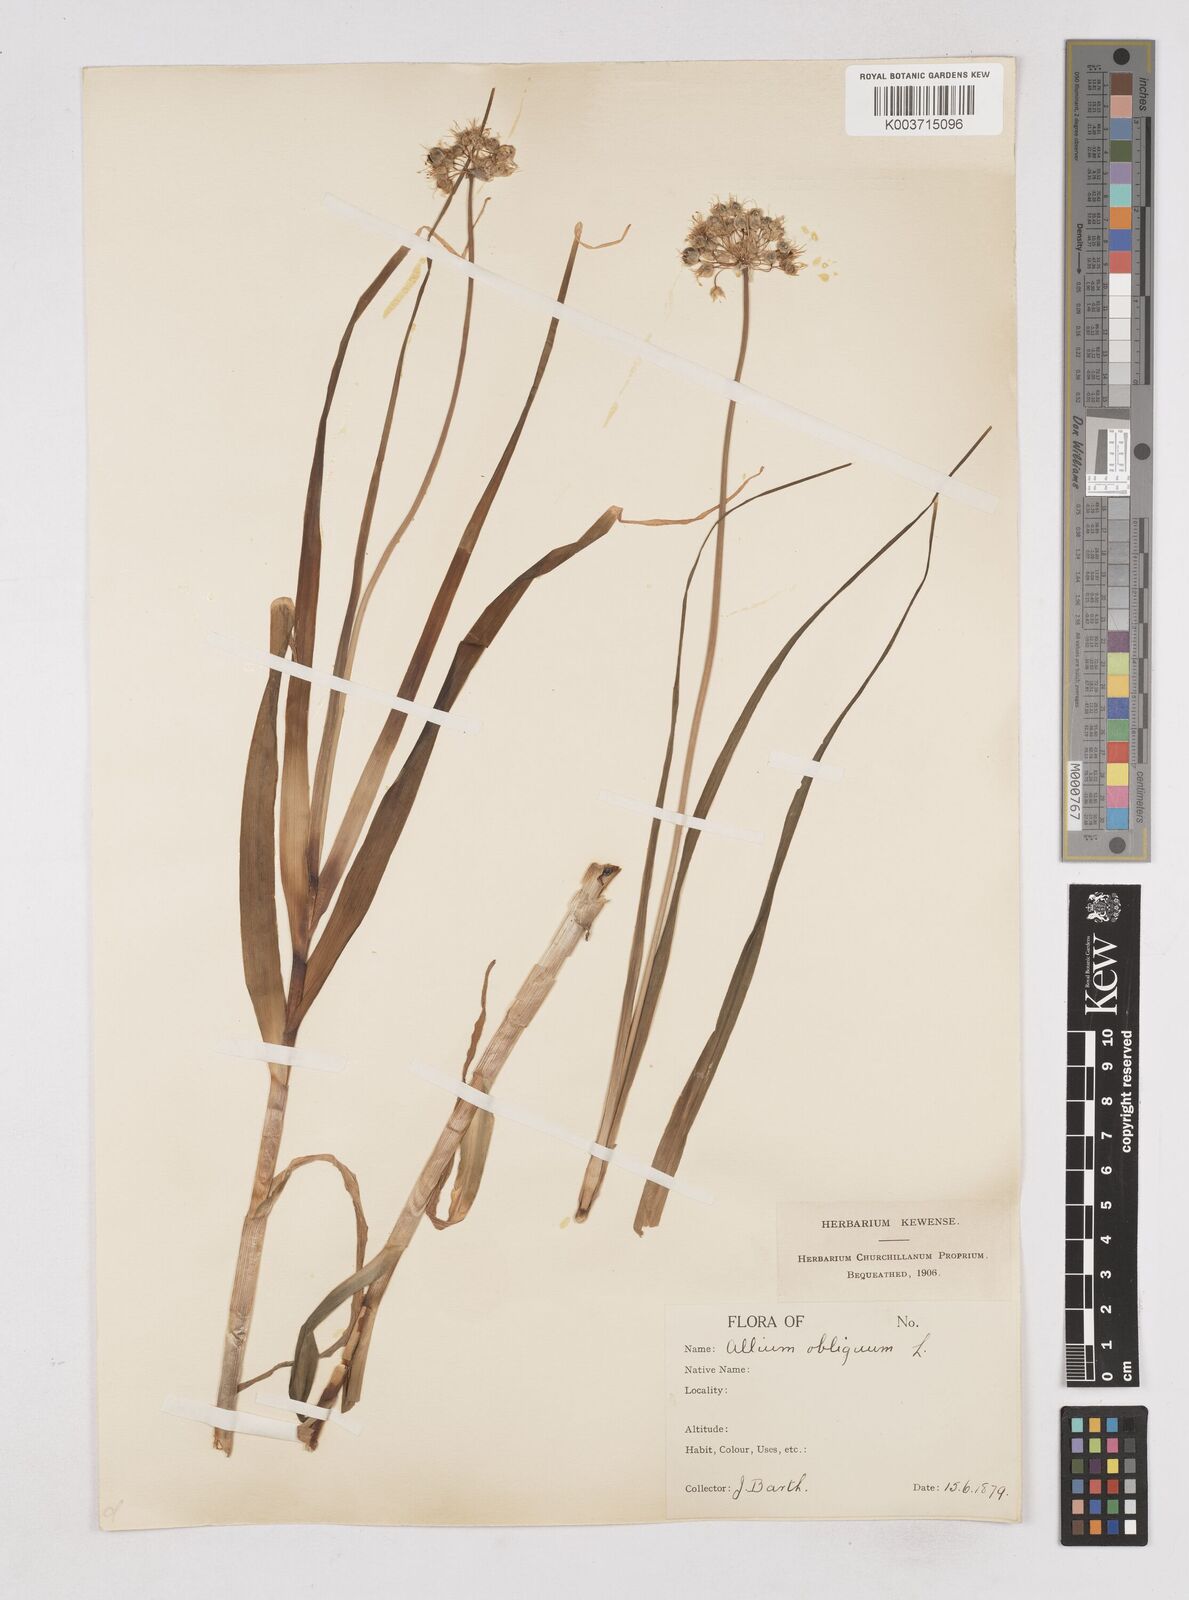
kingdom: Plantae
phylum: Tracheophyta
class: Liliopsida
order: Asparagales
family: Amaryllidaceae
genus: Allium
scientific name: Allium obliquum
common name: Oblique onion
